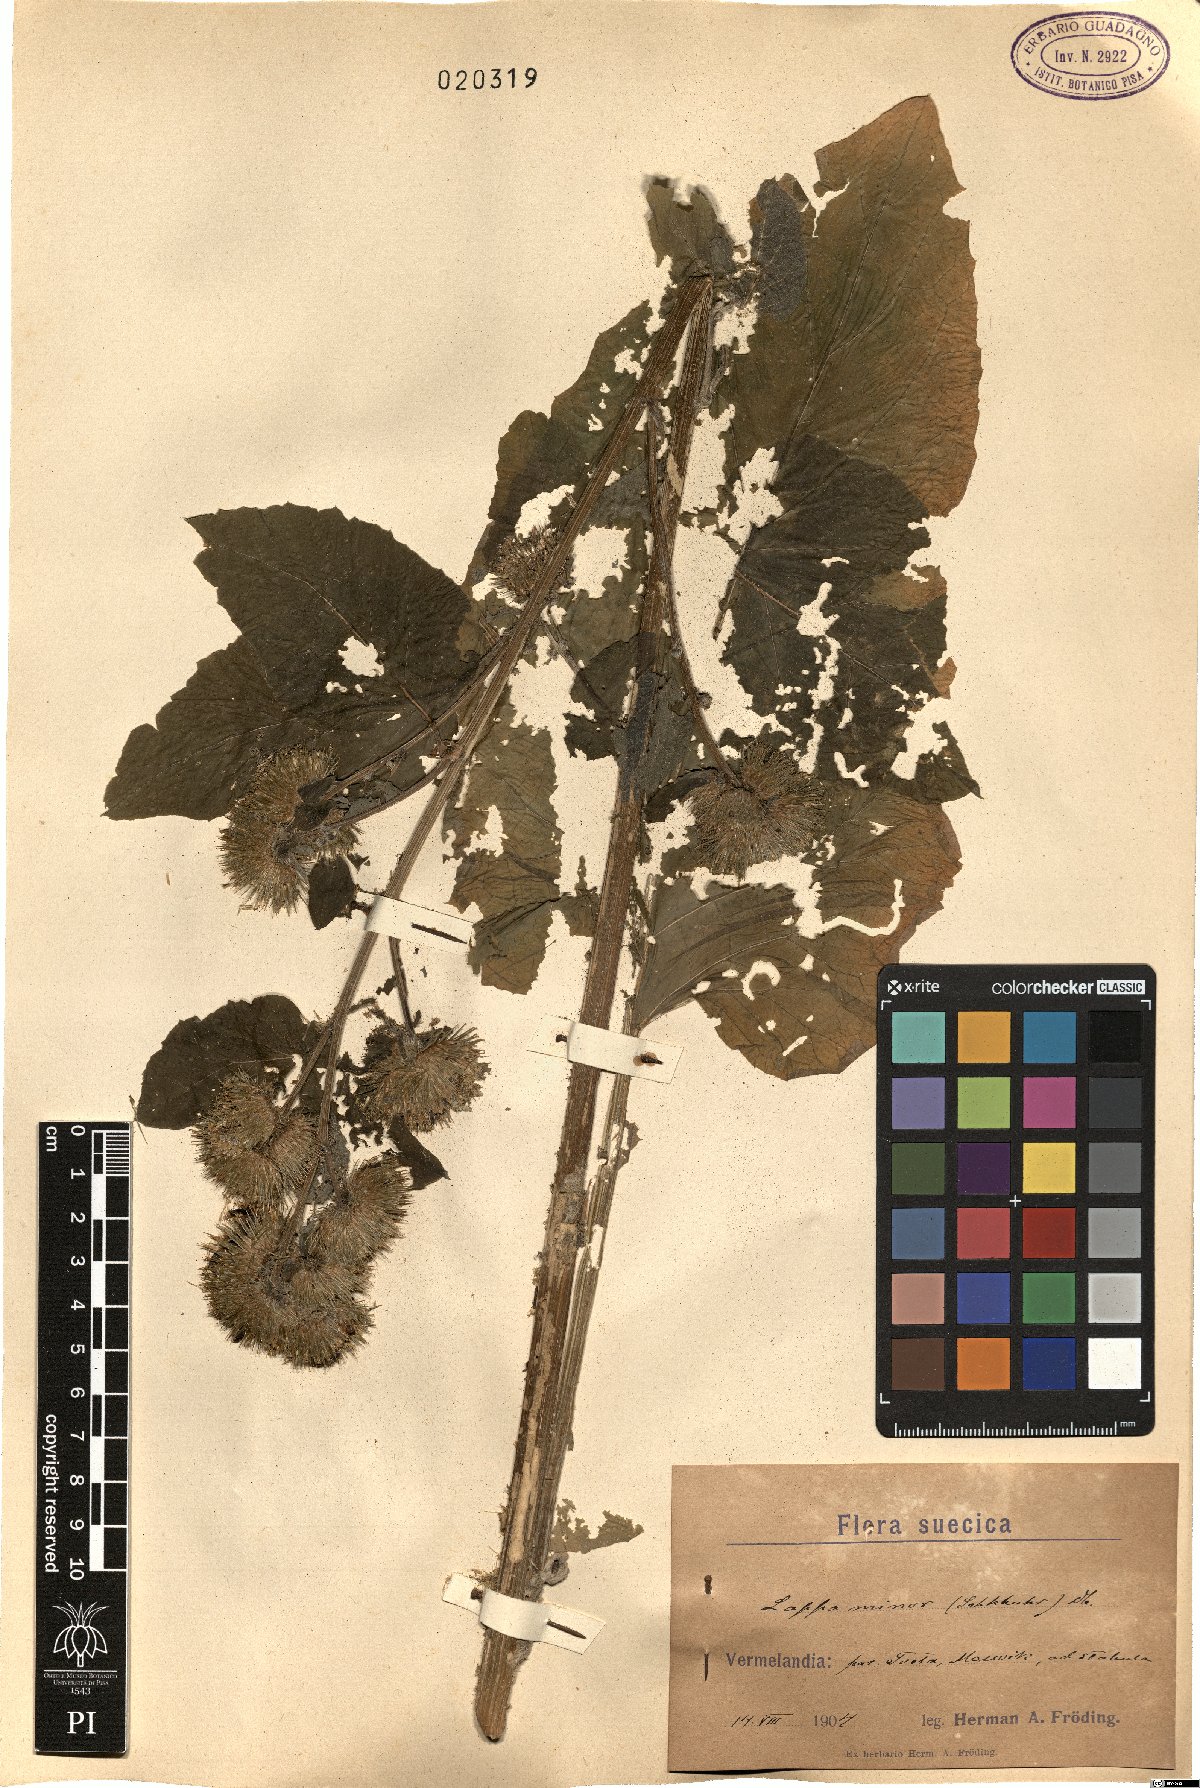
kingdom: Plantae
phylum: Tracheophyta
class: Magnoliopsida
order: Asterales
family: Asteraceae
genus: Arctium
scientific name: Arctium minus
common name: Lesser burdock
